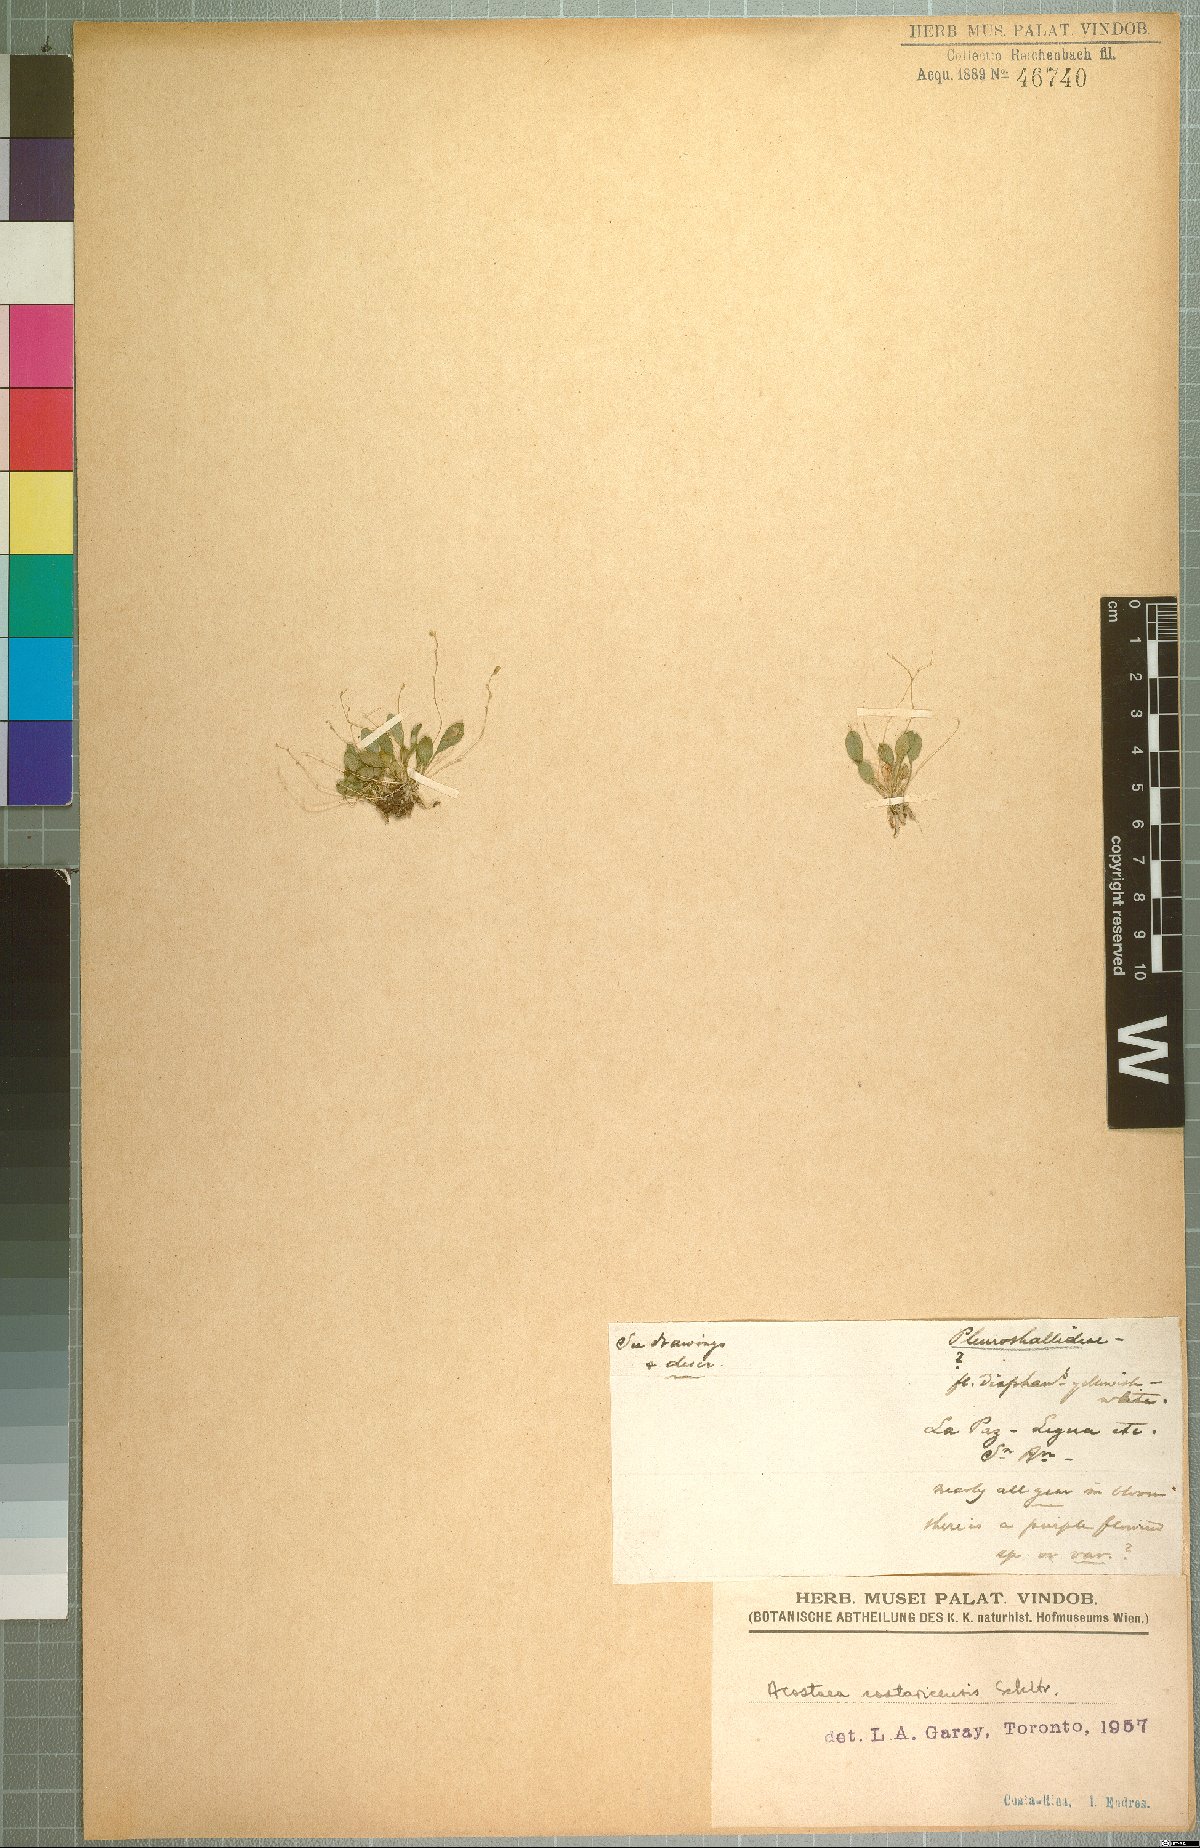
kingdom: Plantae
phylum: Tracheophyta
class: Liliopsida
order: Asparagales
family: Orchidaceae
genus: Specklinia
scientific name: Specklinia colombiana
